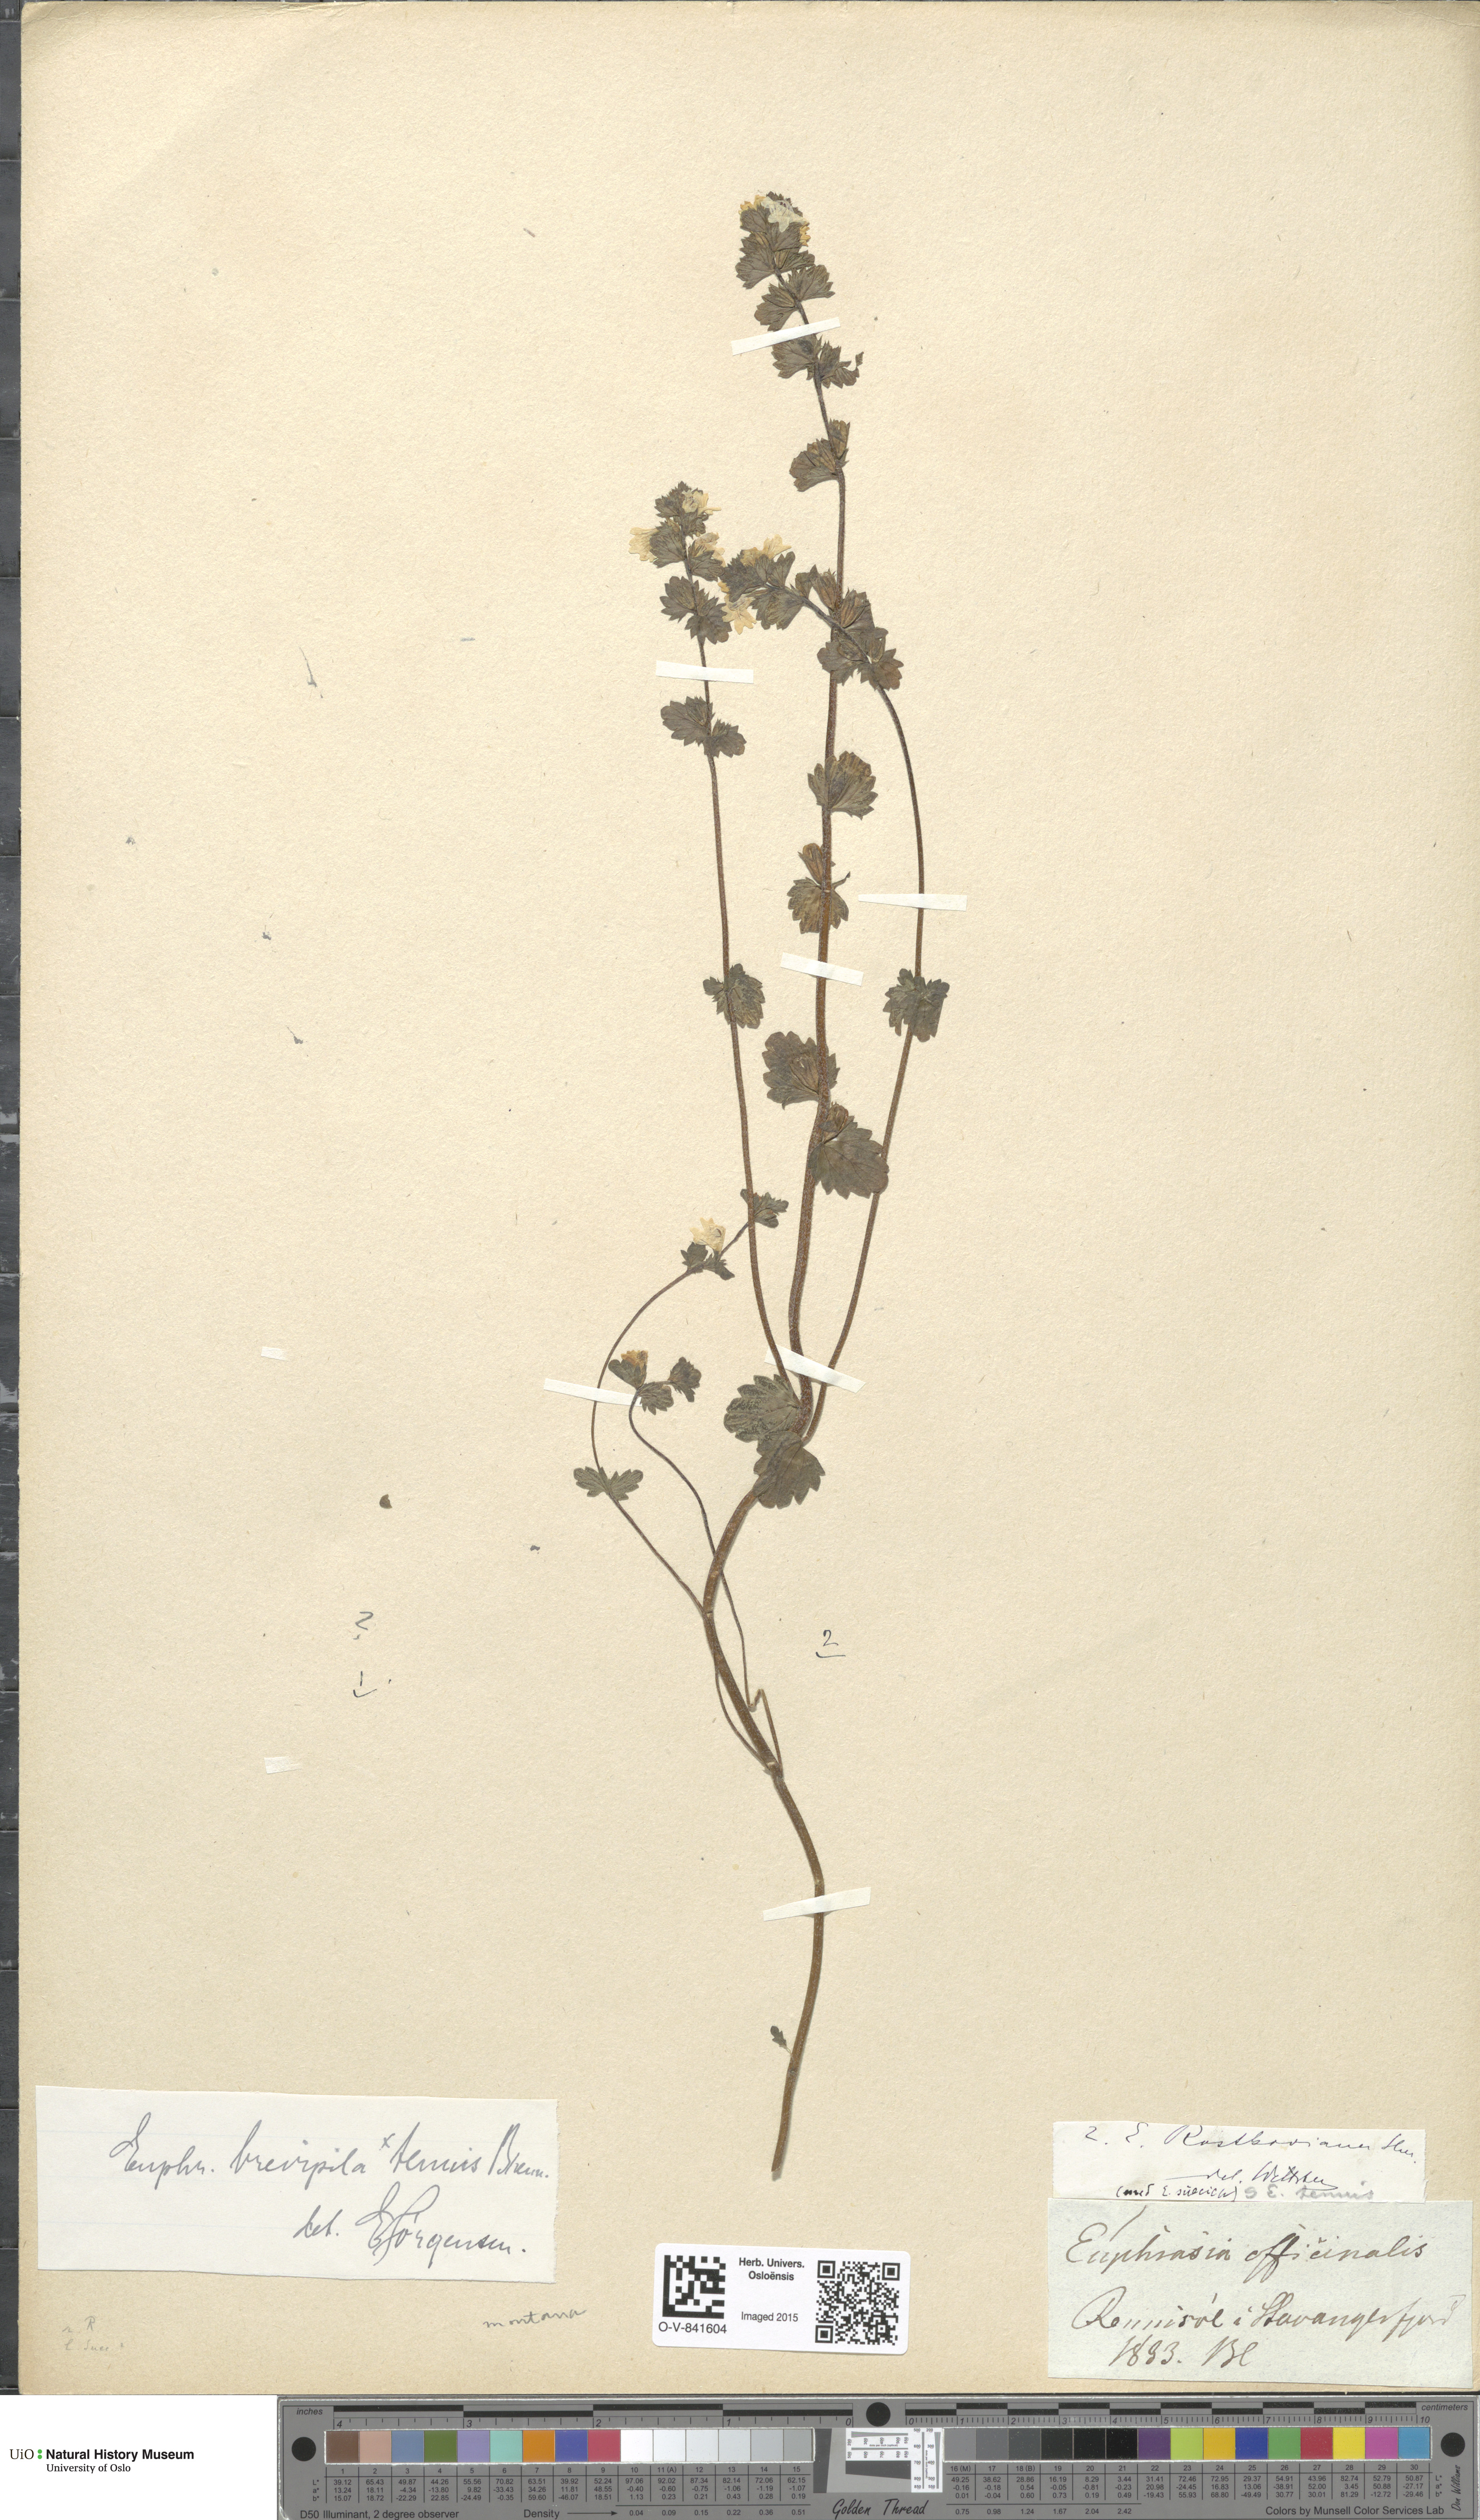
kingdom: Plantae
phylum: Tracheophyta
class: Magnoliopsida
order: Lamiales
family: Orobanchaceae
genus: Euphrasia
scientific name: Euphrasia vernalis
